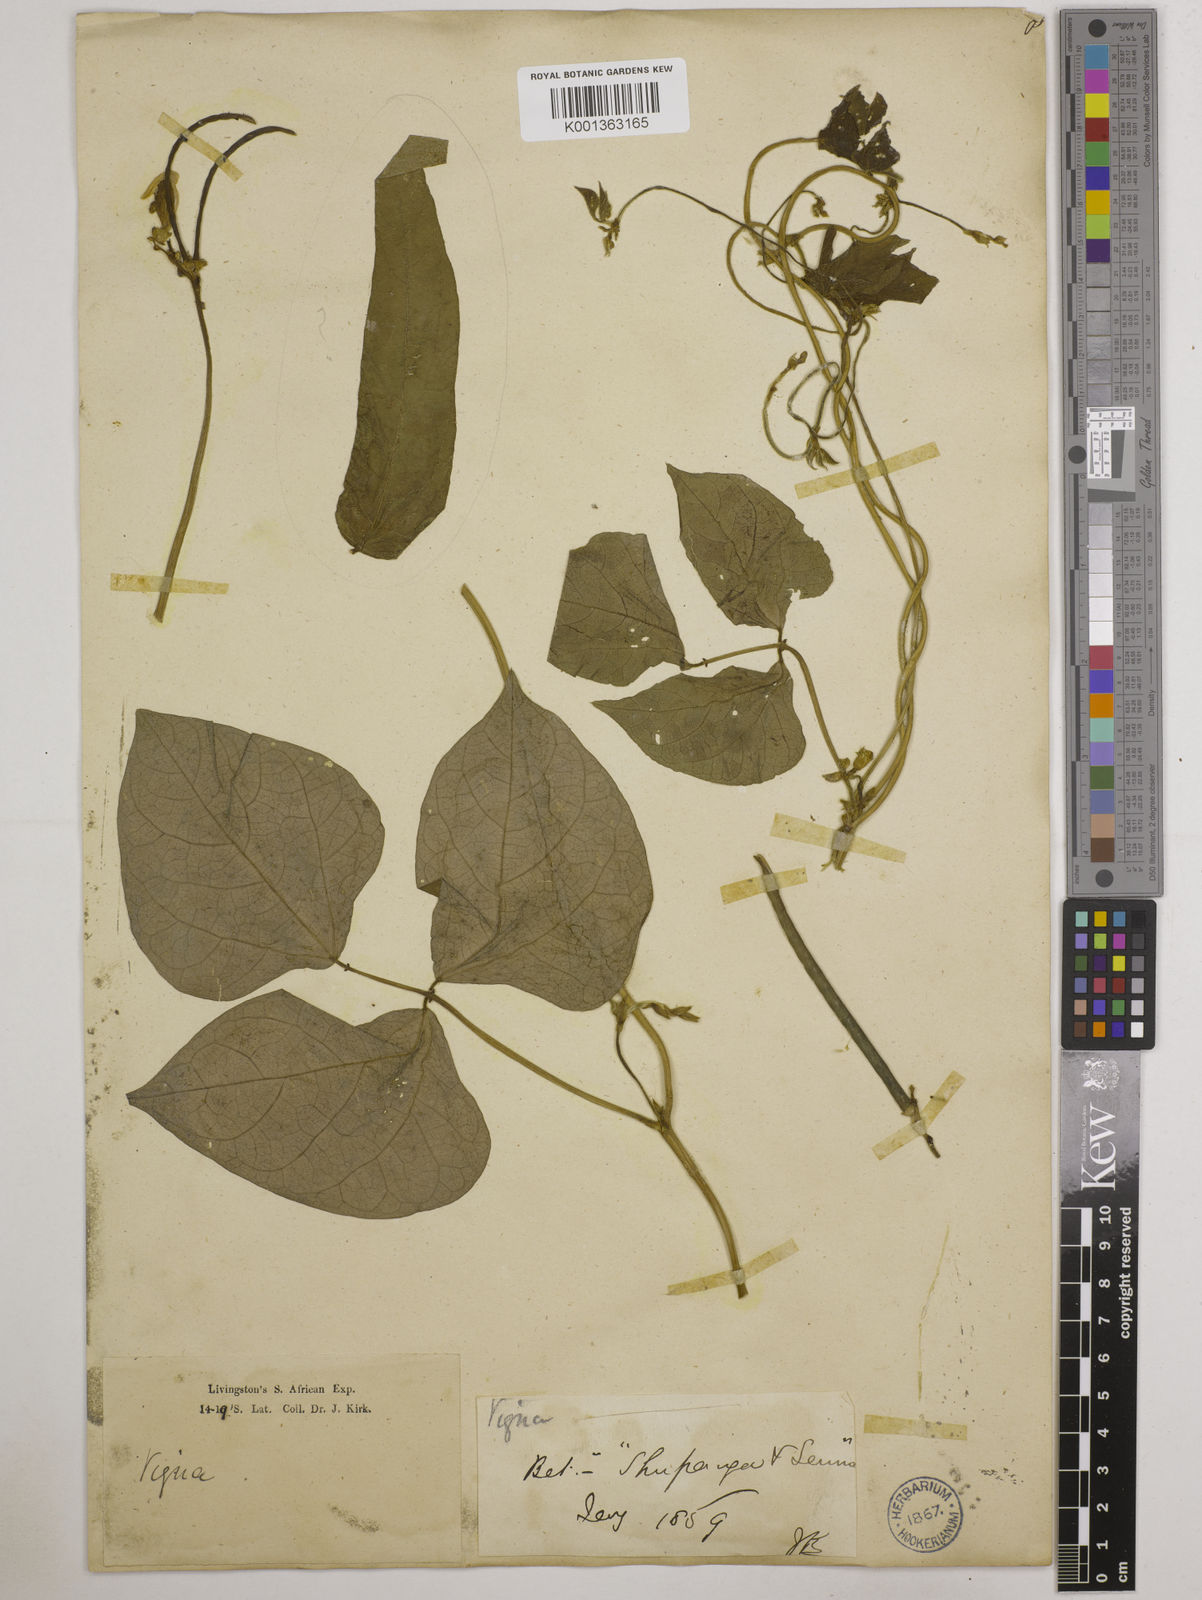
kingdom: Plantae
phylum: Tracheophyta
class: Magnoliopsida
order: Fabales
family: Fabaceae
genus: Vigna
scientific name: Vigna
